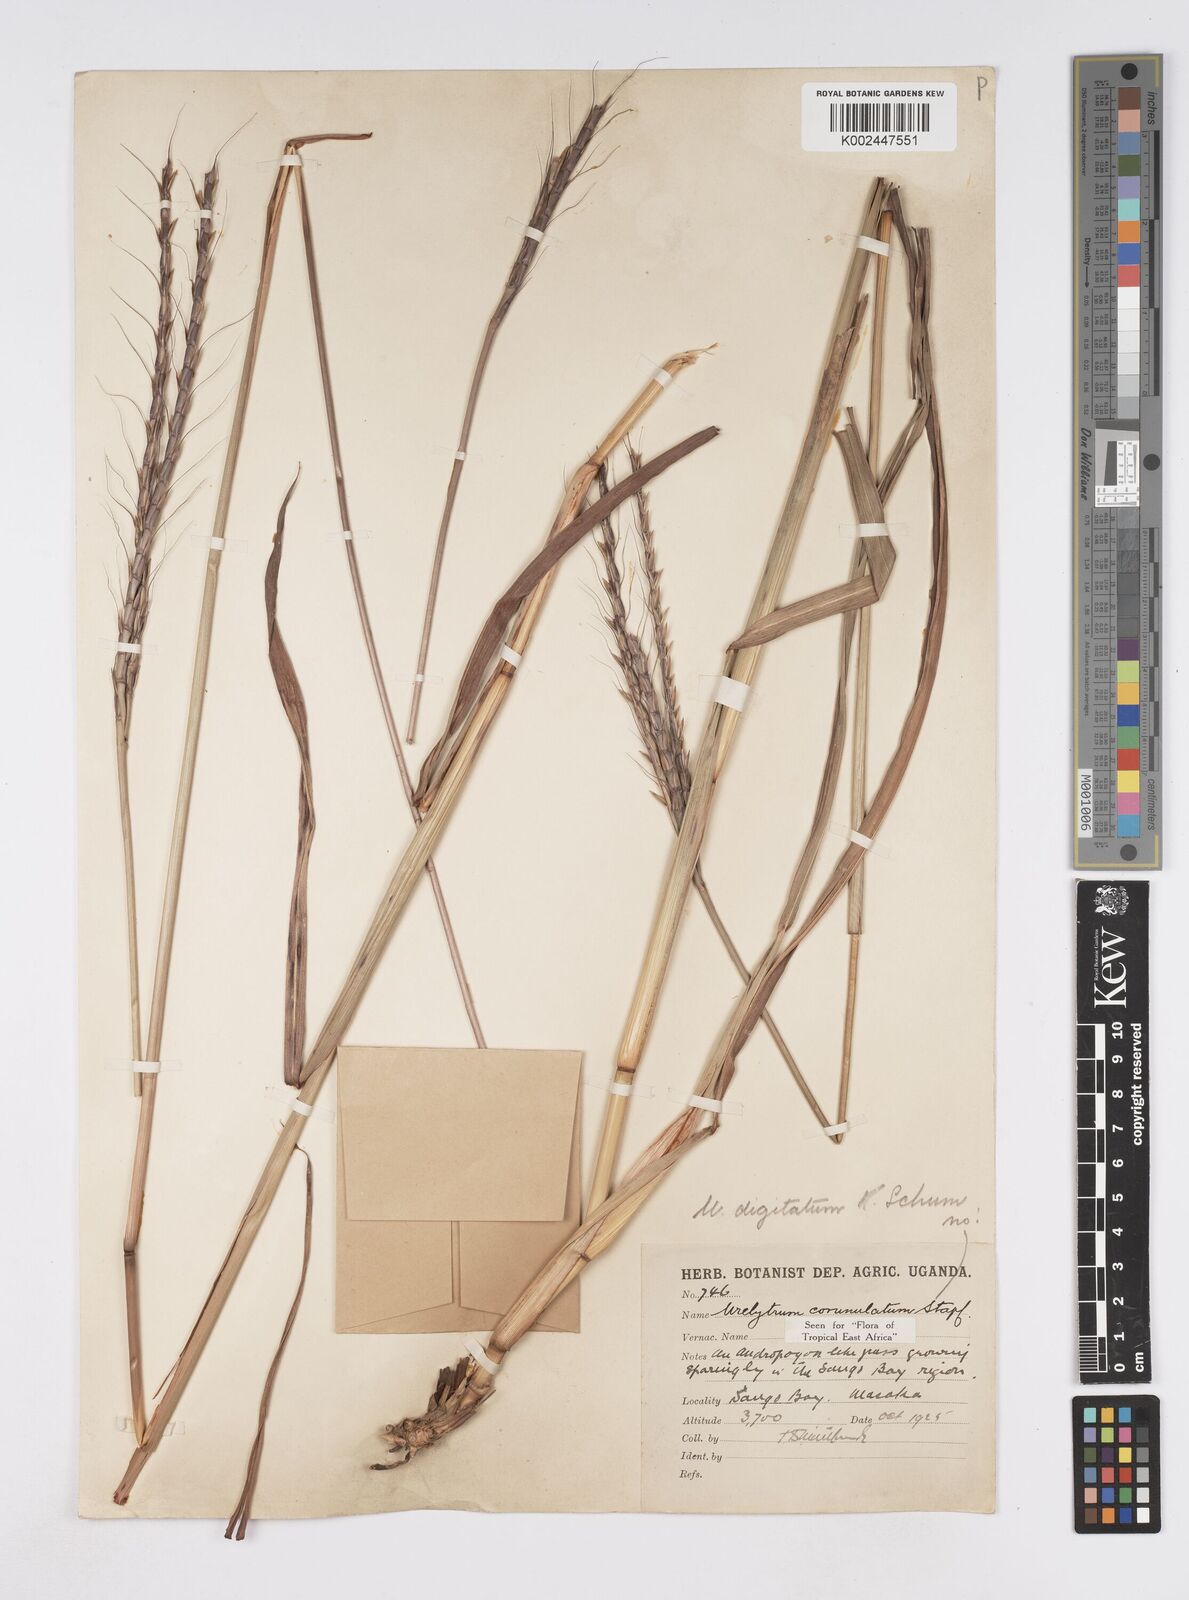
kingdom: Plantae
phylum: Tracheophyta
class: Liliopsida
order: Poales
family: Poaceae
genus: Urelytrum
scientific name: Urelytrum digitatum
